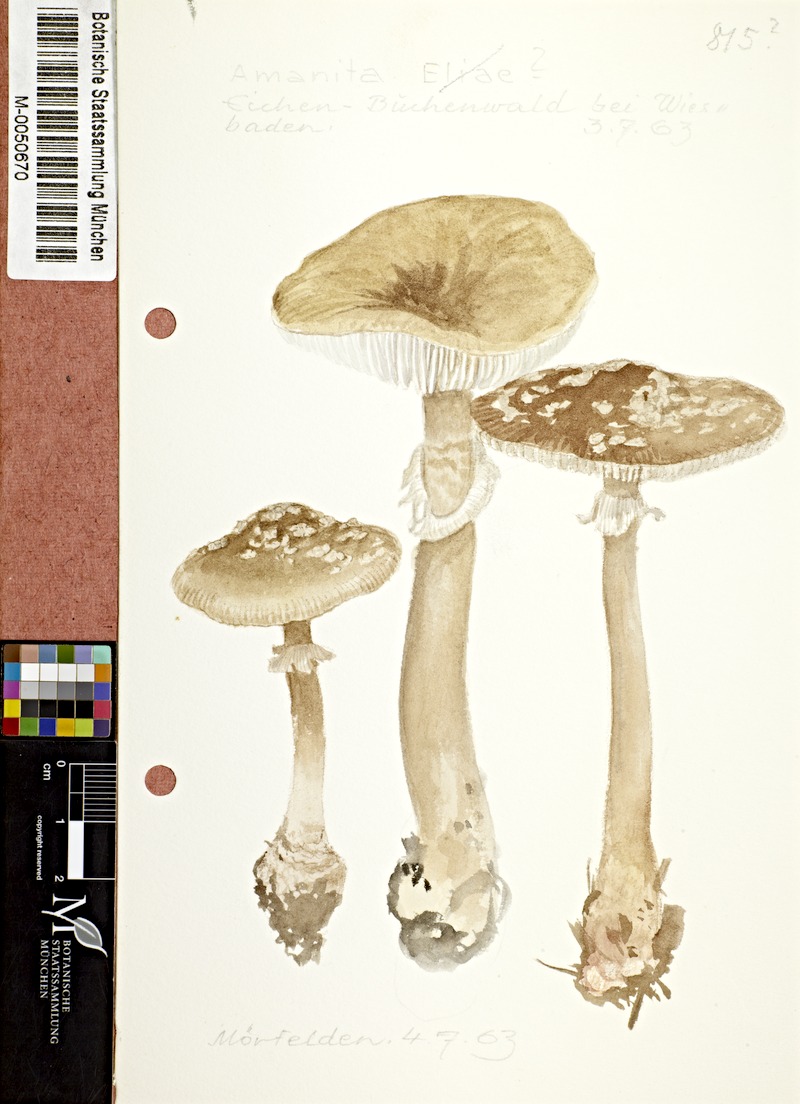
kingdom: Fungi
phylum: Basidiomycota
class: Agaricomycetes
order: Agaricales
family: Amanitaceae
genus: Amanita
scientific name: Amanita
